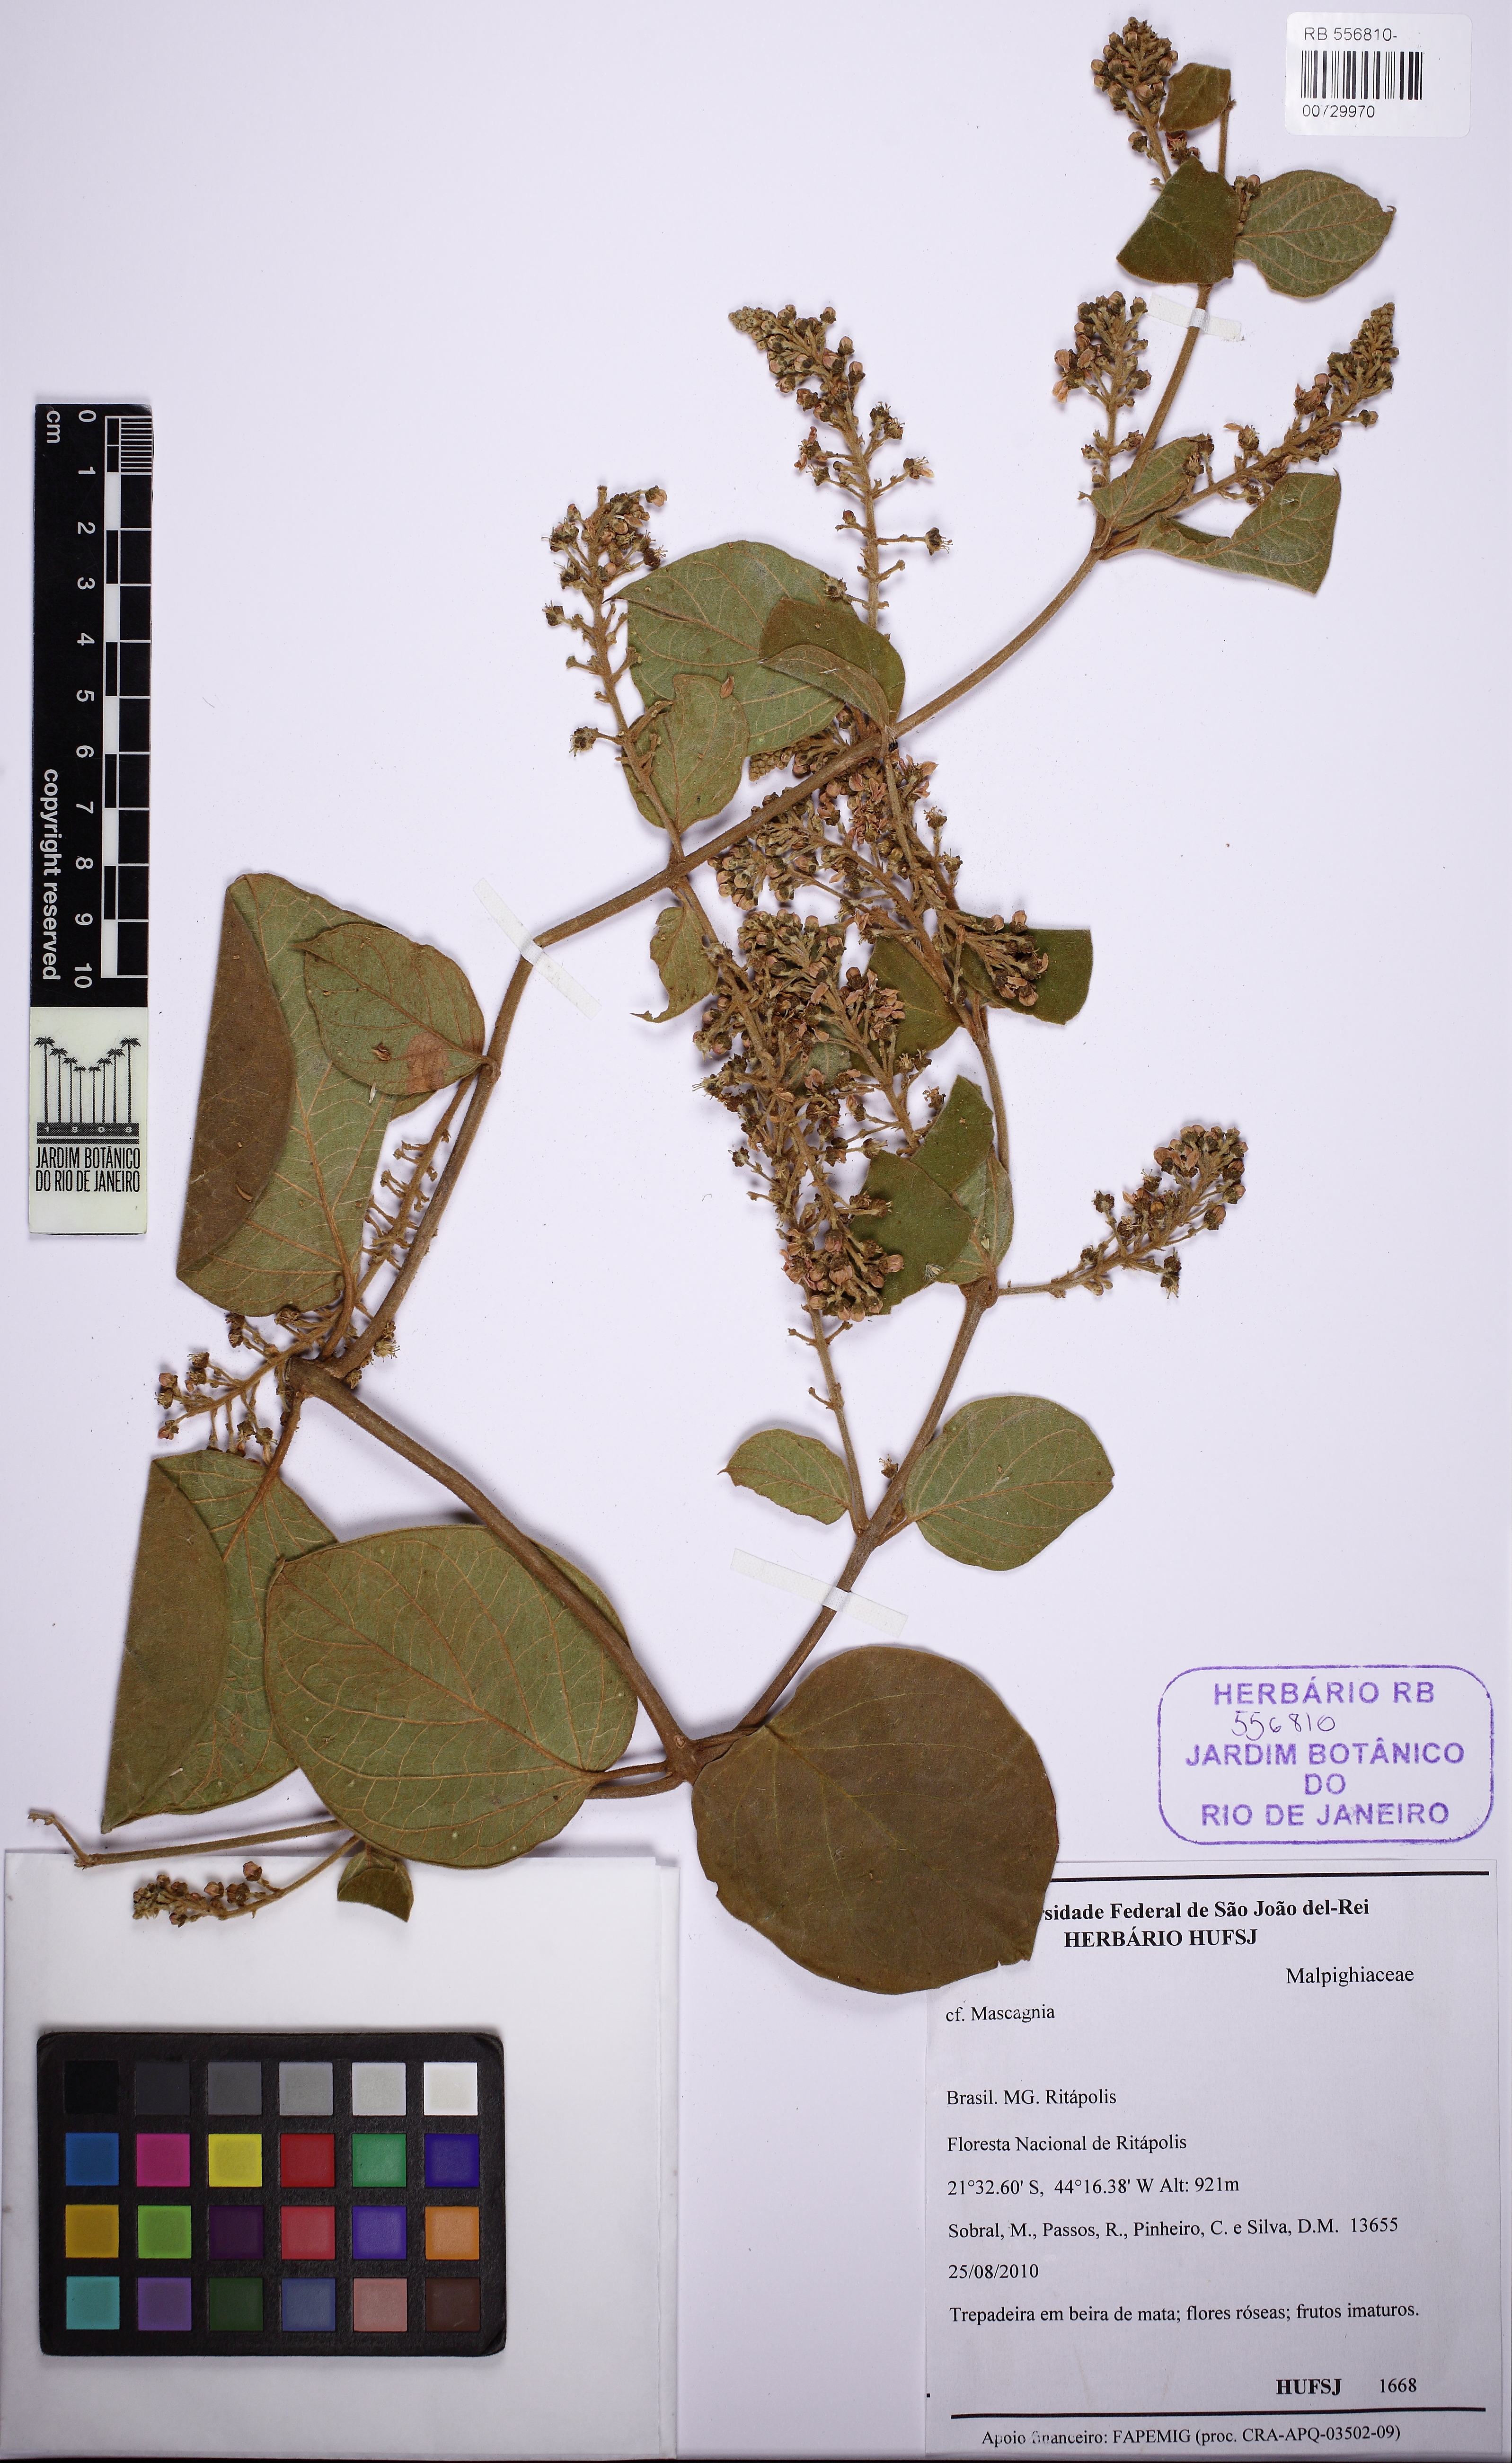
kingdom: Plantae
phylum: Tracheophyta
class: Magnoliopsida
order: Malpighiales
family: Malpighiaceae
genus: Mascagnia
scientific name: Mascagnia cordifolia
